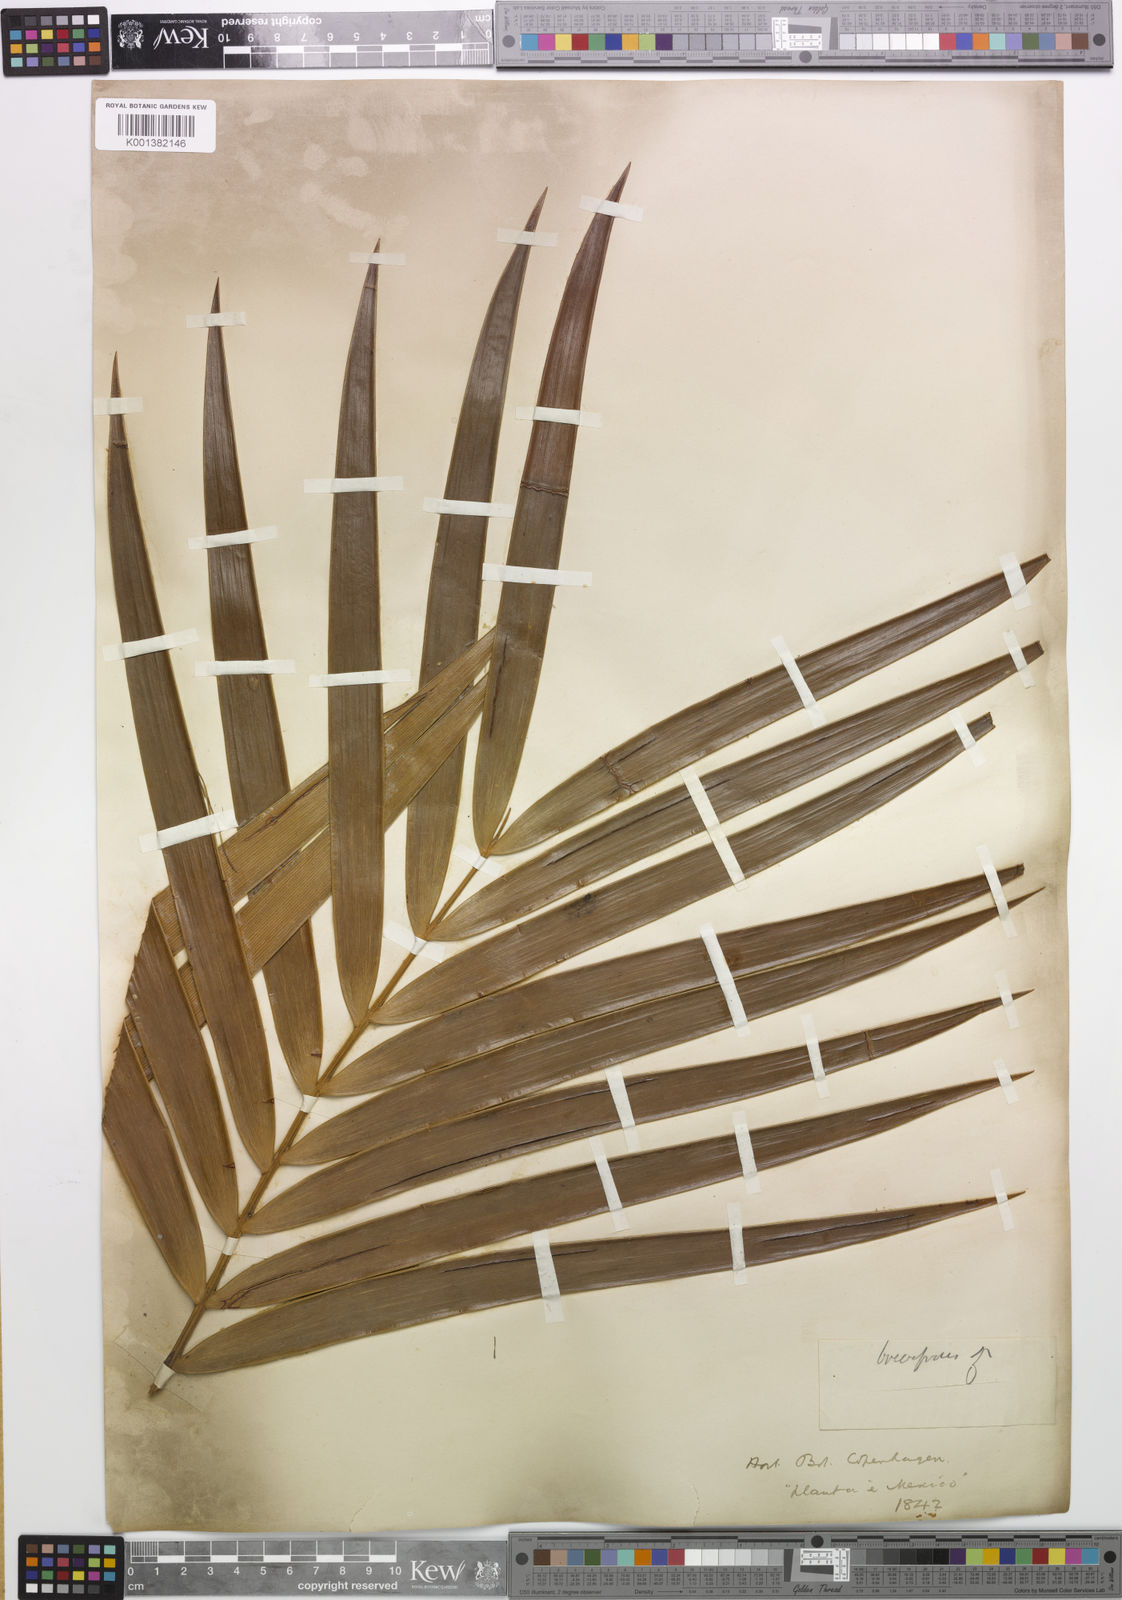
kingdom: Plantae
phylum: Tracheophyta
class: Cycadopsida
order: Cycadales
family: Zamiaceae
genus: Ceratozamia
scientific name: Ceratozamia mexicana
